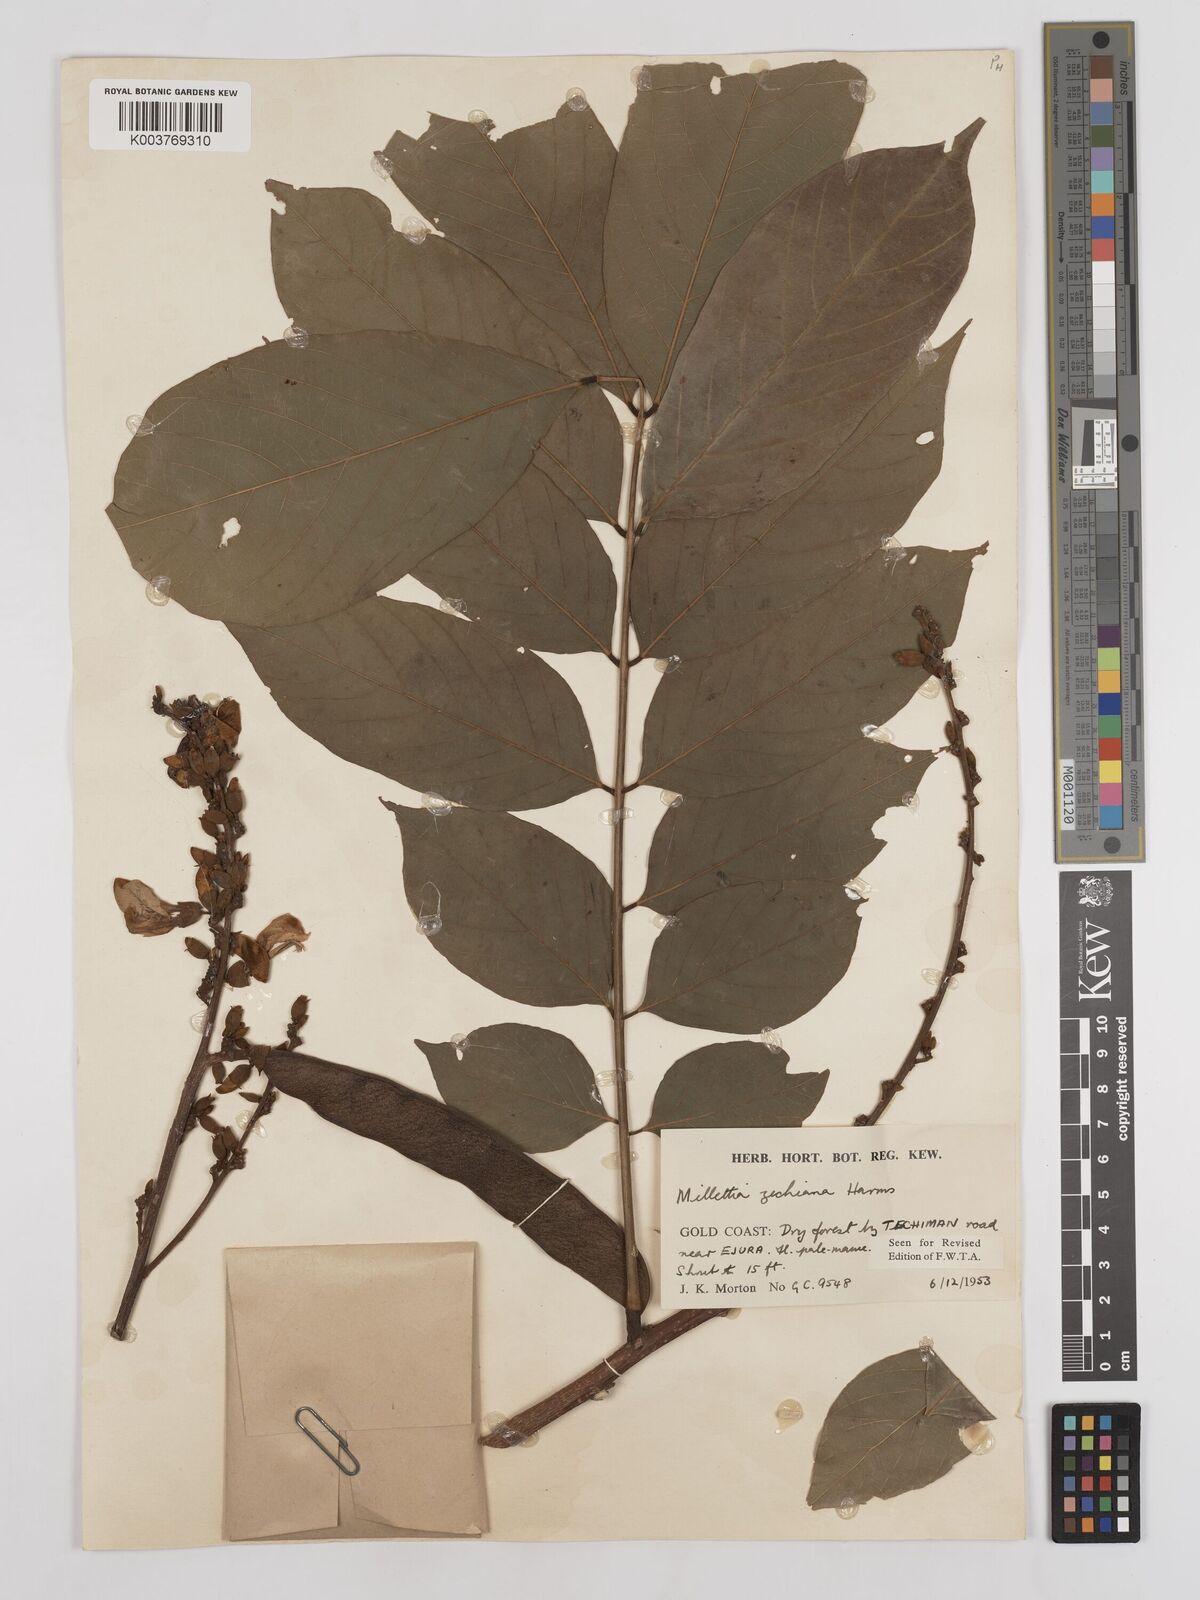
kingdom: Plantae
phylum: Tracheophyta
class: Magnoliopsida
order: Fabales
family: Fabaceae
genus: Millettia
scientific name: Millettia zechiana
